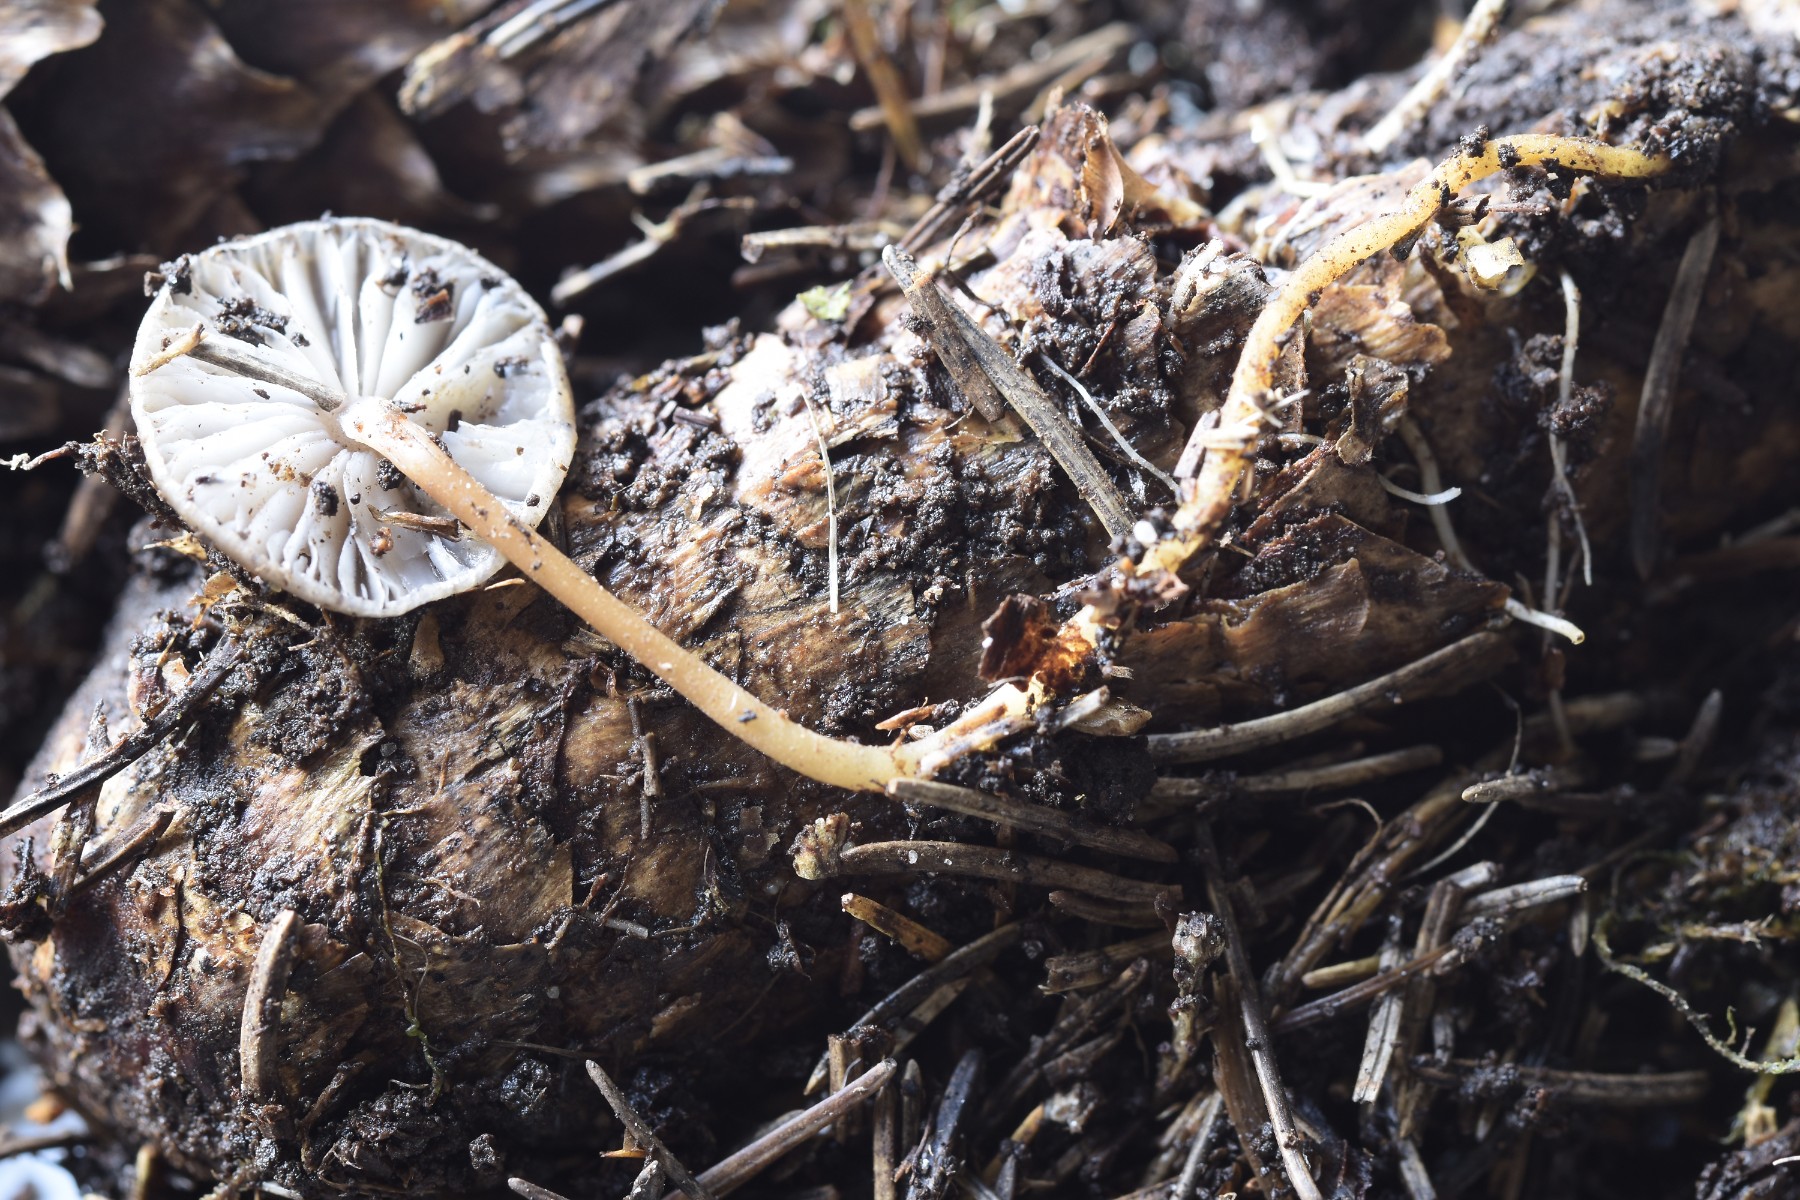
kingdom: Fungi
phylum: Basidiomycota
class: Agaricomycetes
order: Agaricales
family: Physalacriaceae
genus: Strobilurus
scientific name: Strobilurus esculentus
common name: gran-koglehat
